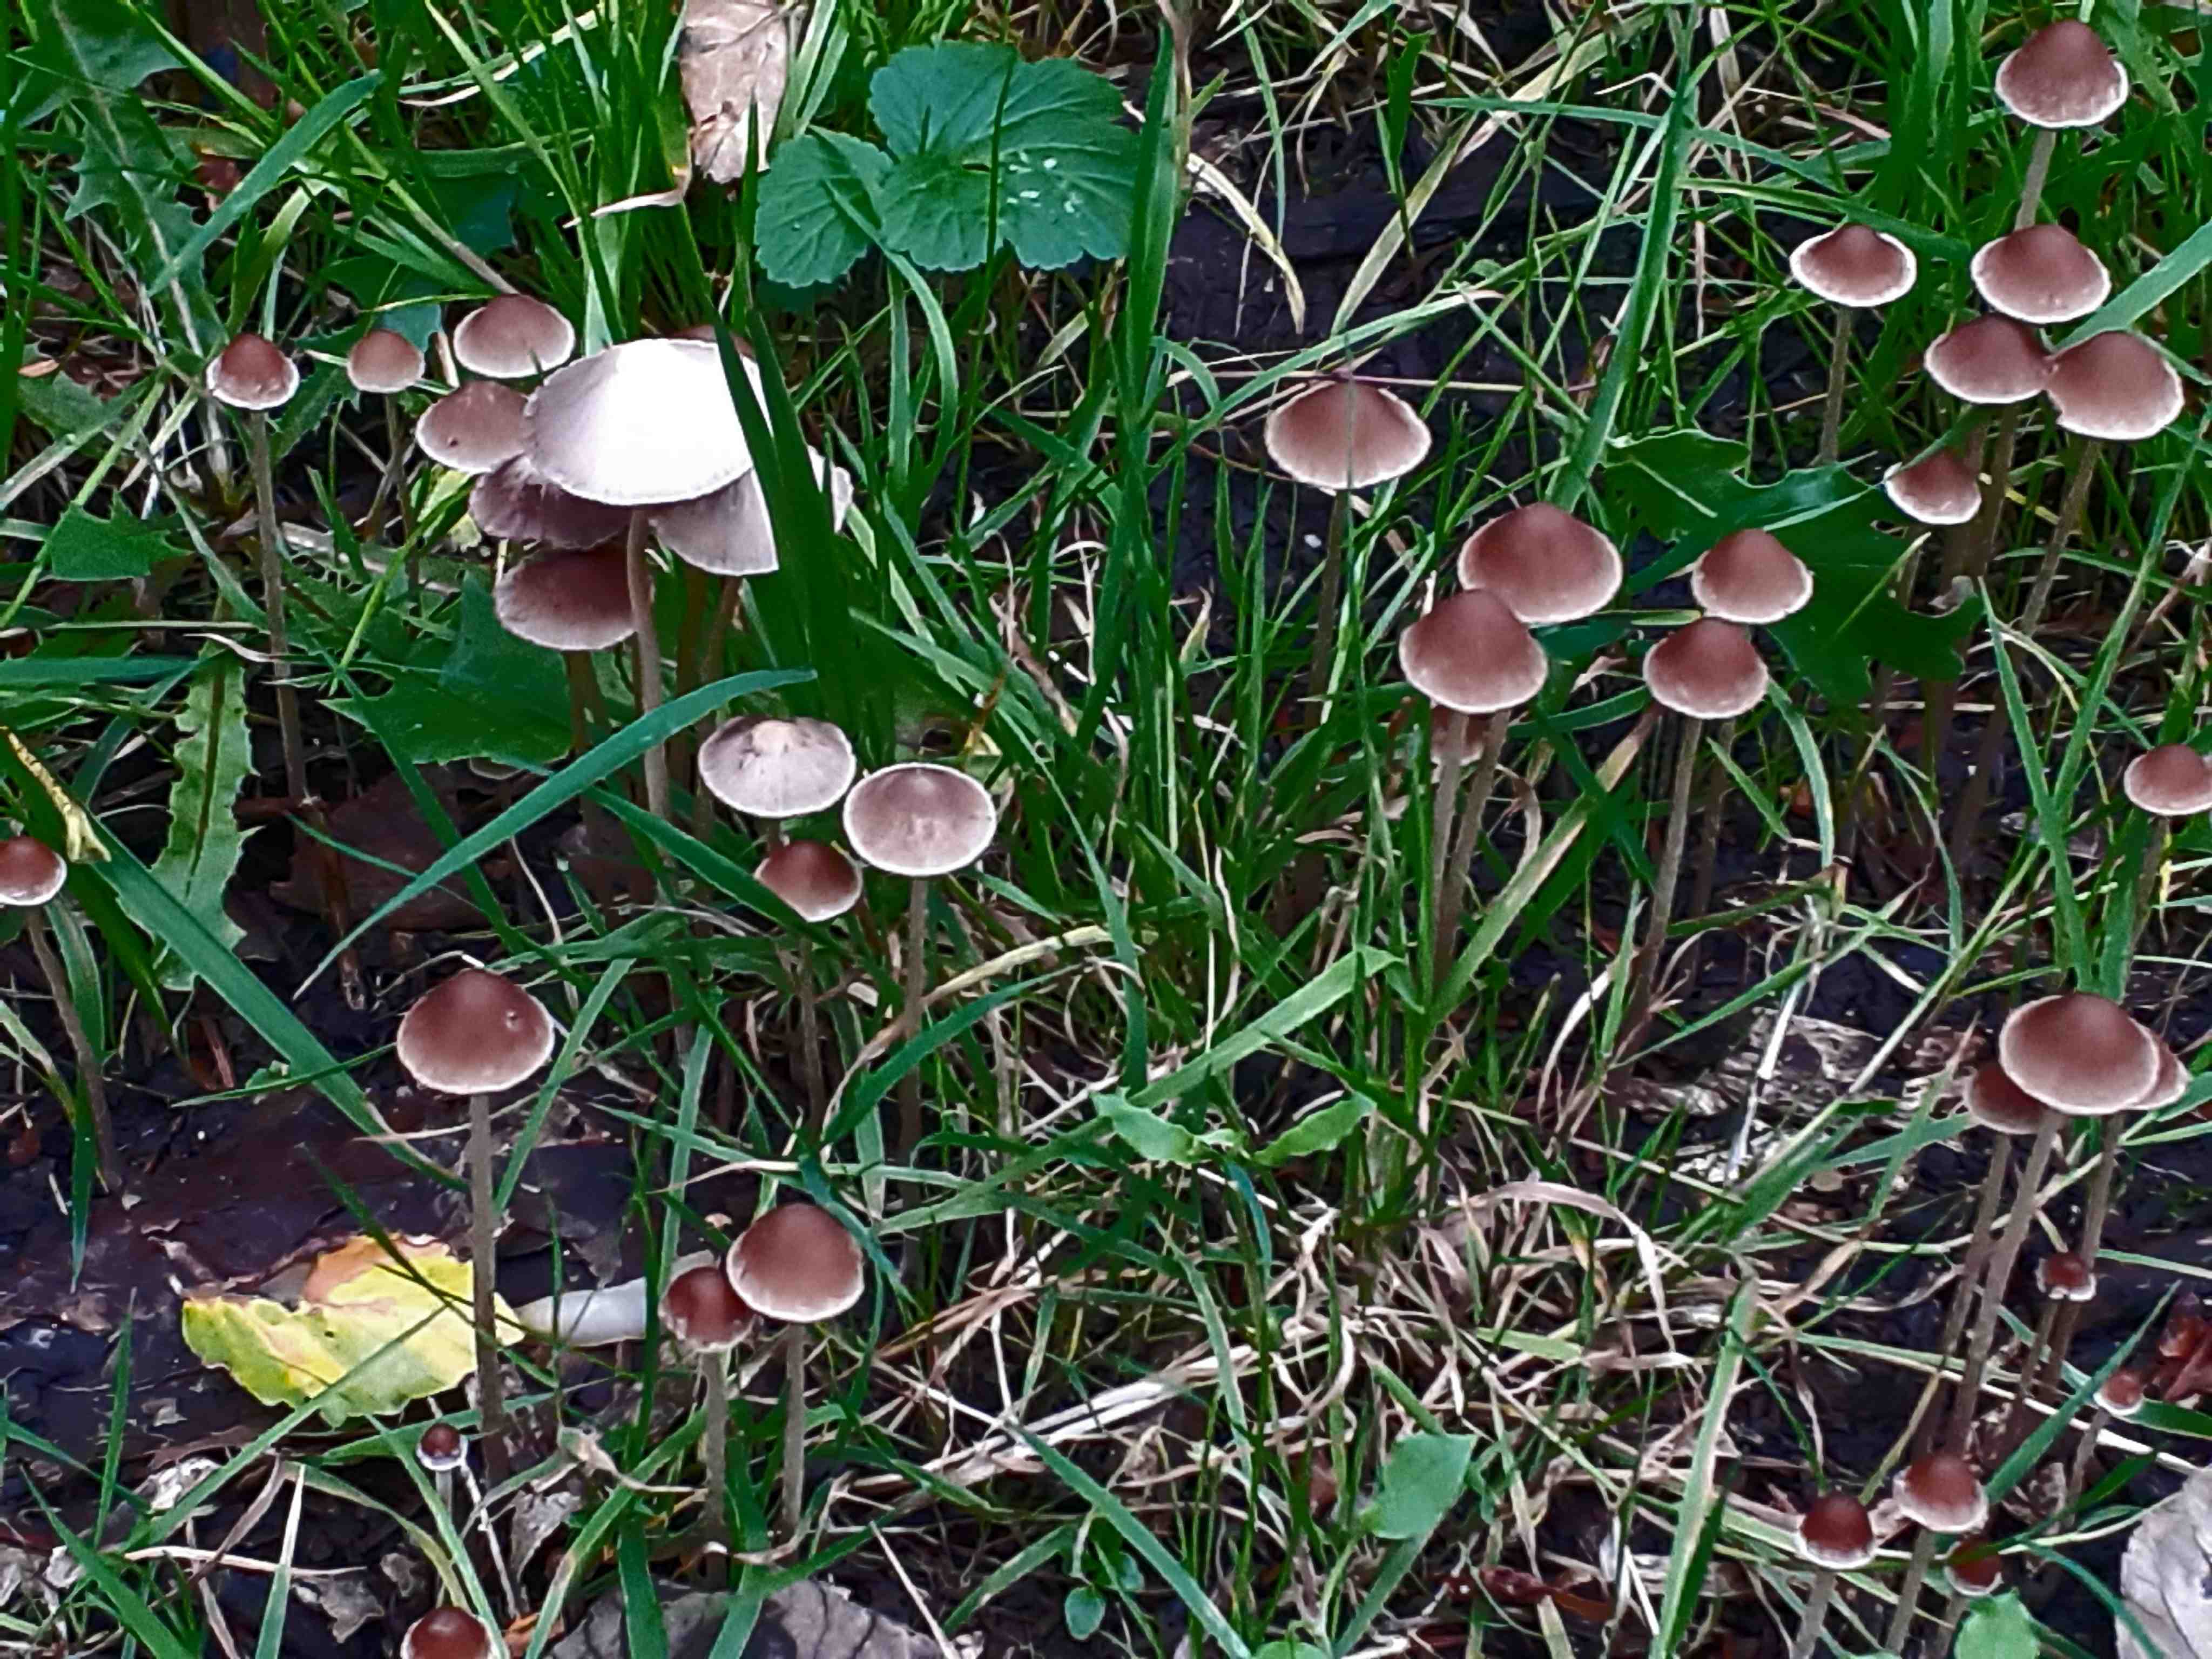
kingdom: Fungi
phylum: Basidiomycota
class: Agaricomycetes
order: Agaricales
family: Psathyrellaceae
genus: Parasola
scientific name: Parasola conopilea
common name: kegle-hjulhat
